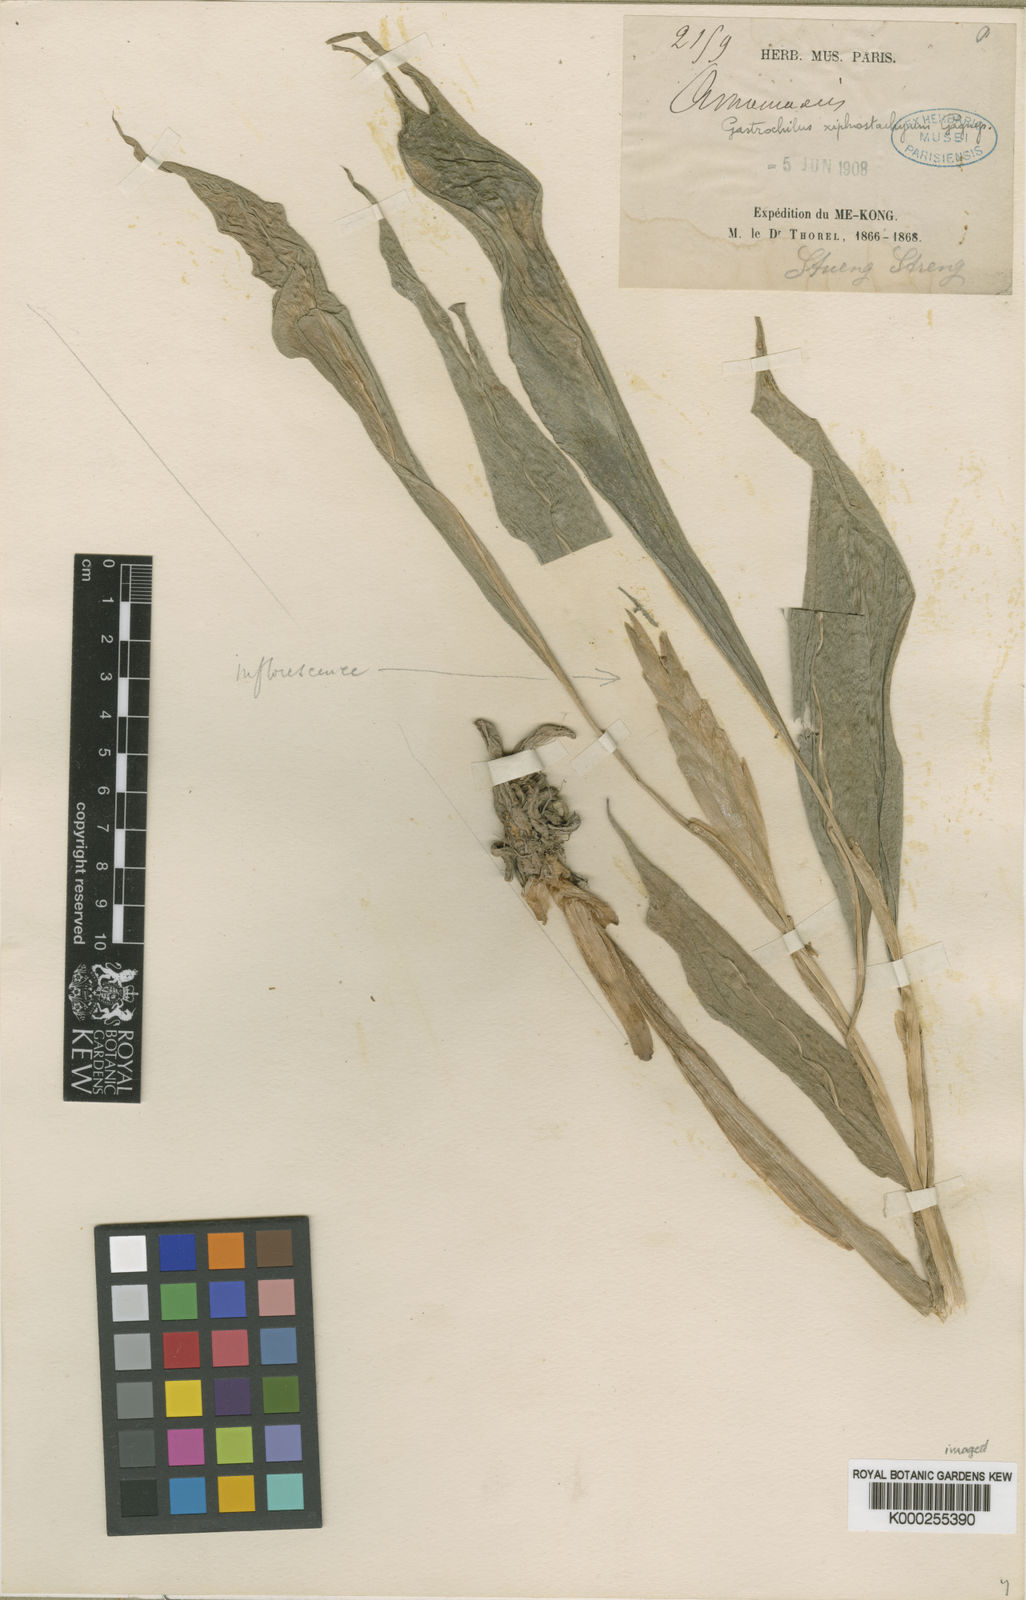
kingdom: Plantae
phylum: Tracheophyta
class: Liliopsida
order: Zingiberales
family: Zingiberaceae
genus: Boesenbergia
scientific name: Boesenbergia xiphostachya
